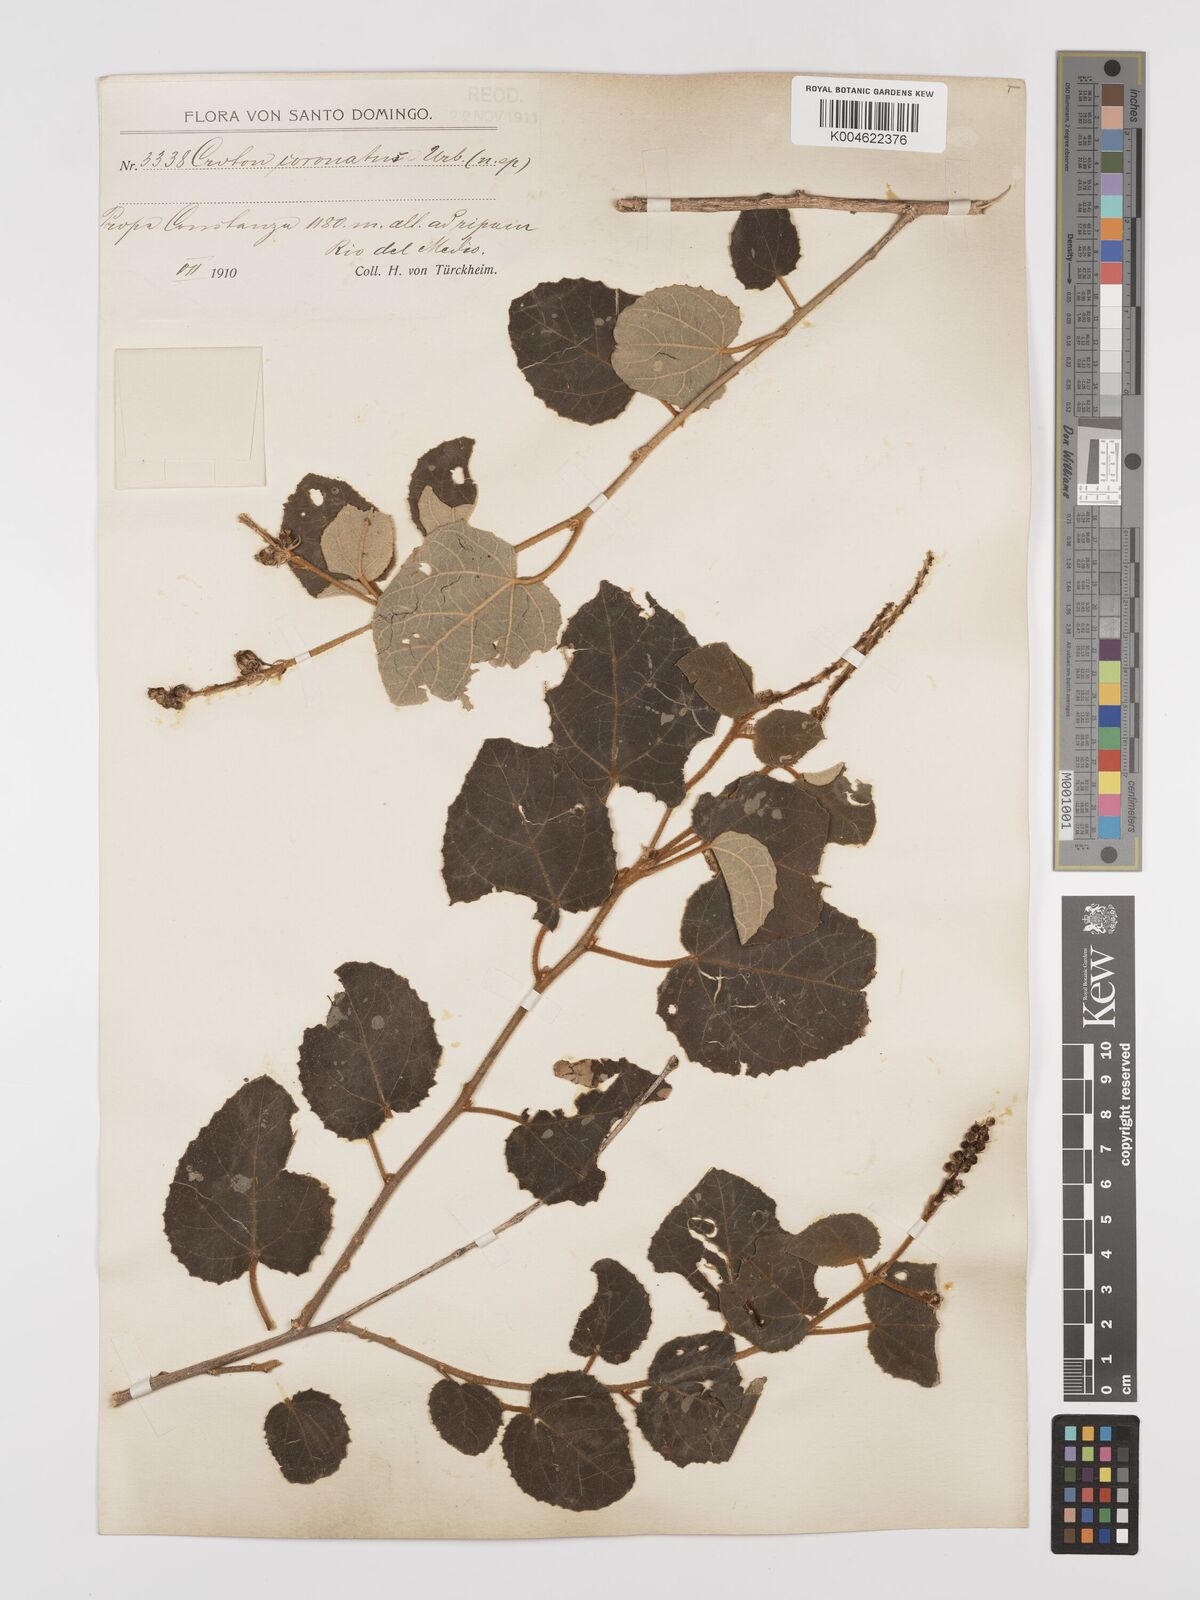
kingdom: Plantae
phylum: Tracheophyta
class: Magnoliopsida
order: Malpighiales
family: Euphorbiaceae
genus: Croton
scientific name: Croton coronatus
